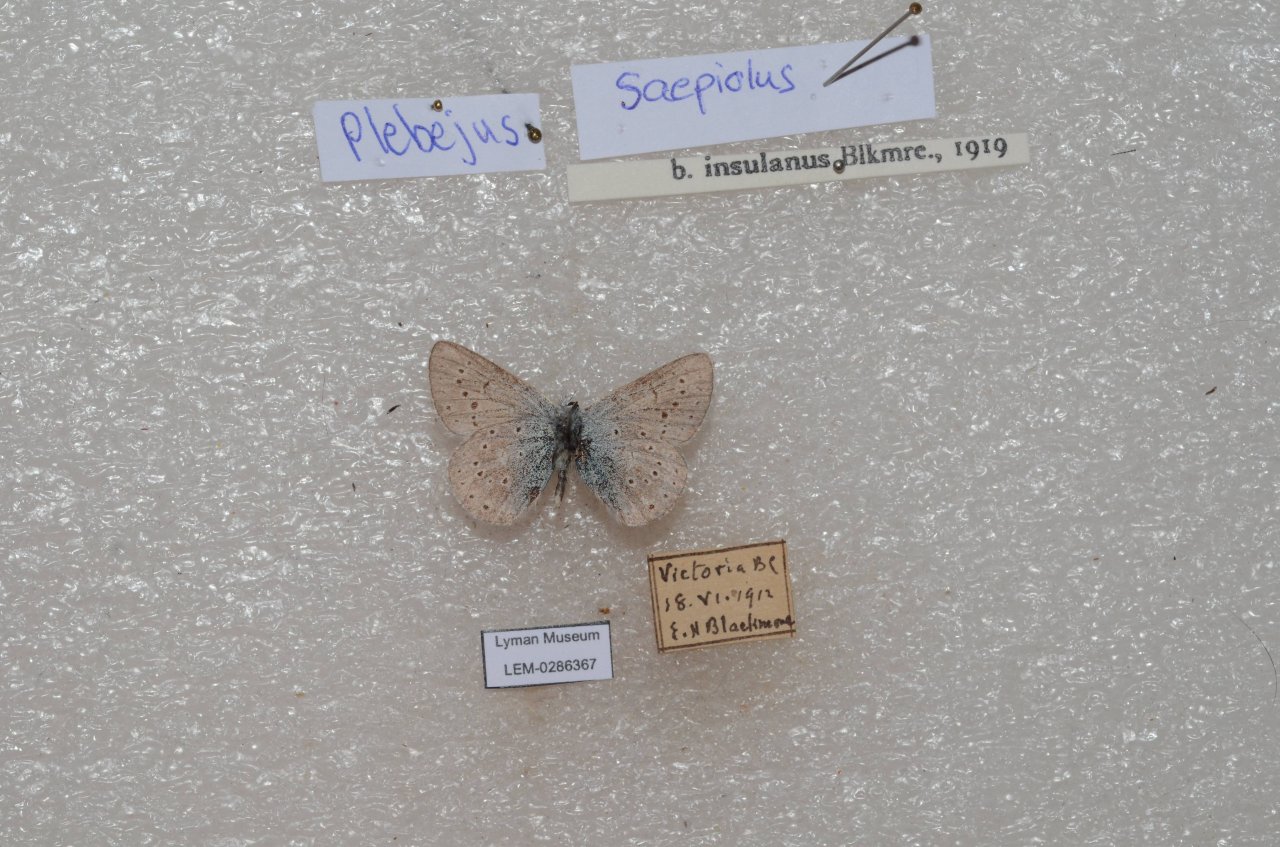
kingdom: Animalia
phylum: Arthropoda
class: Insecta
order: Lepidoptera
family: Lycaenidae
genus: Plebejus
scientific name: Plebejus saepiolus
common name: Greenish Blue
